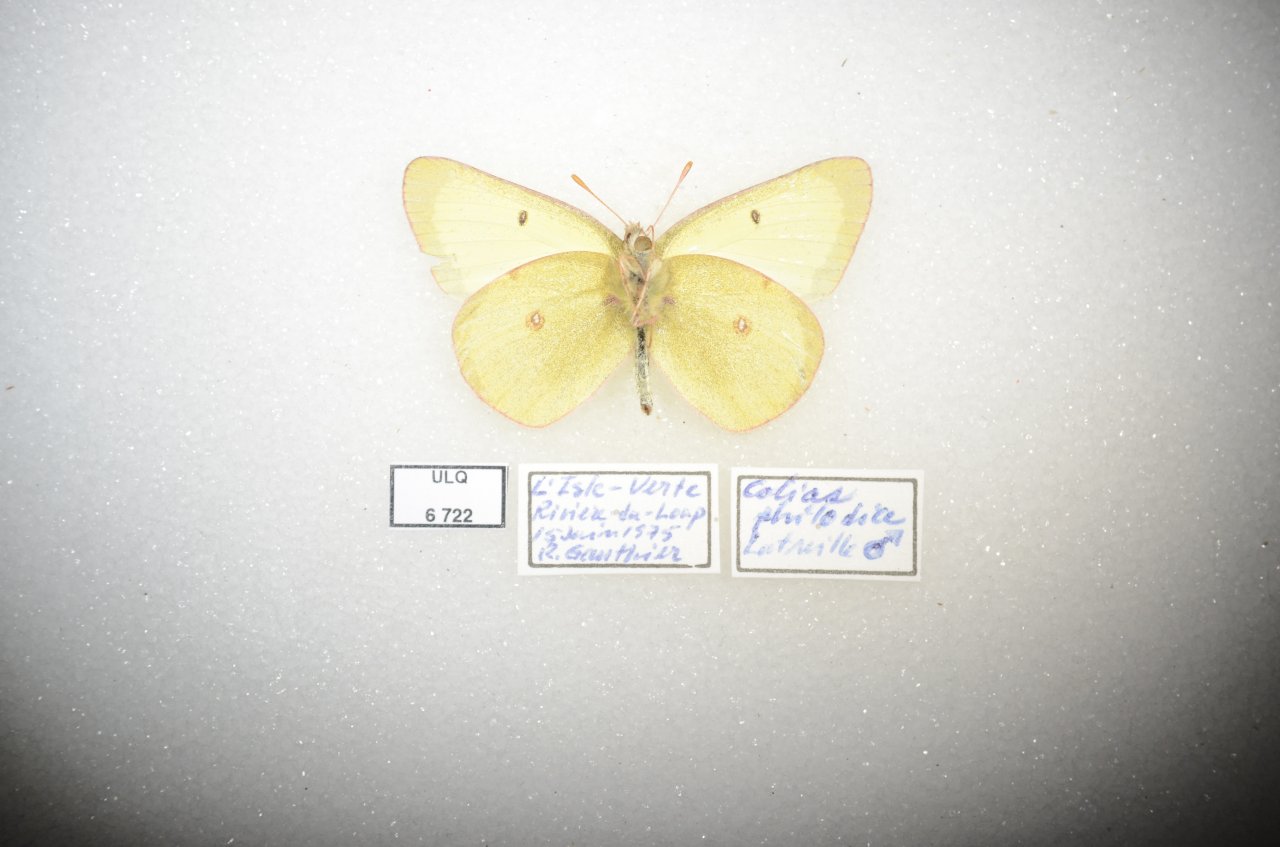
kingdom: Animalia
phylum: Arthropoda
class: Insecta
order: Lepidoptera
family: Pieridae
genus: Colias
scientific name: Colias interior
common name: Pink-edged Sulphur
